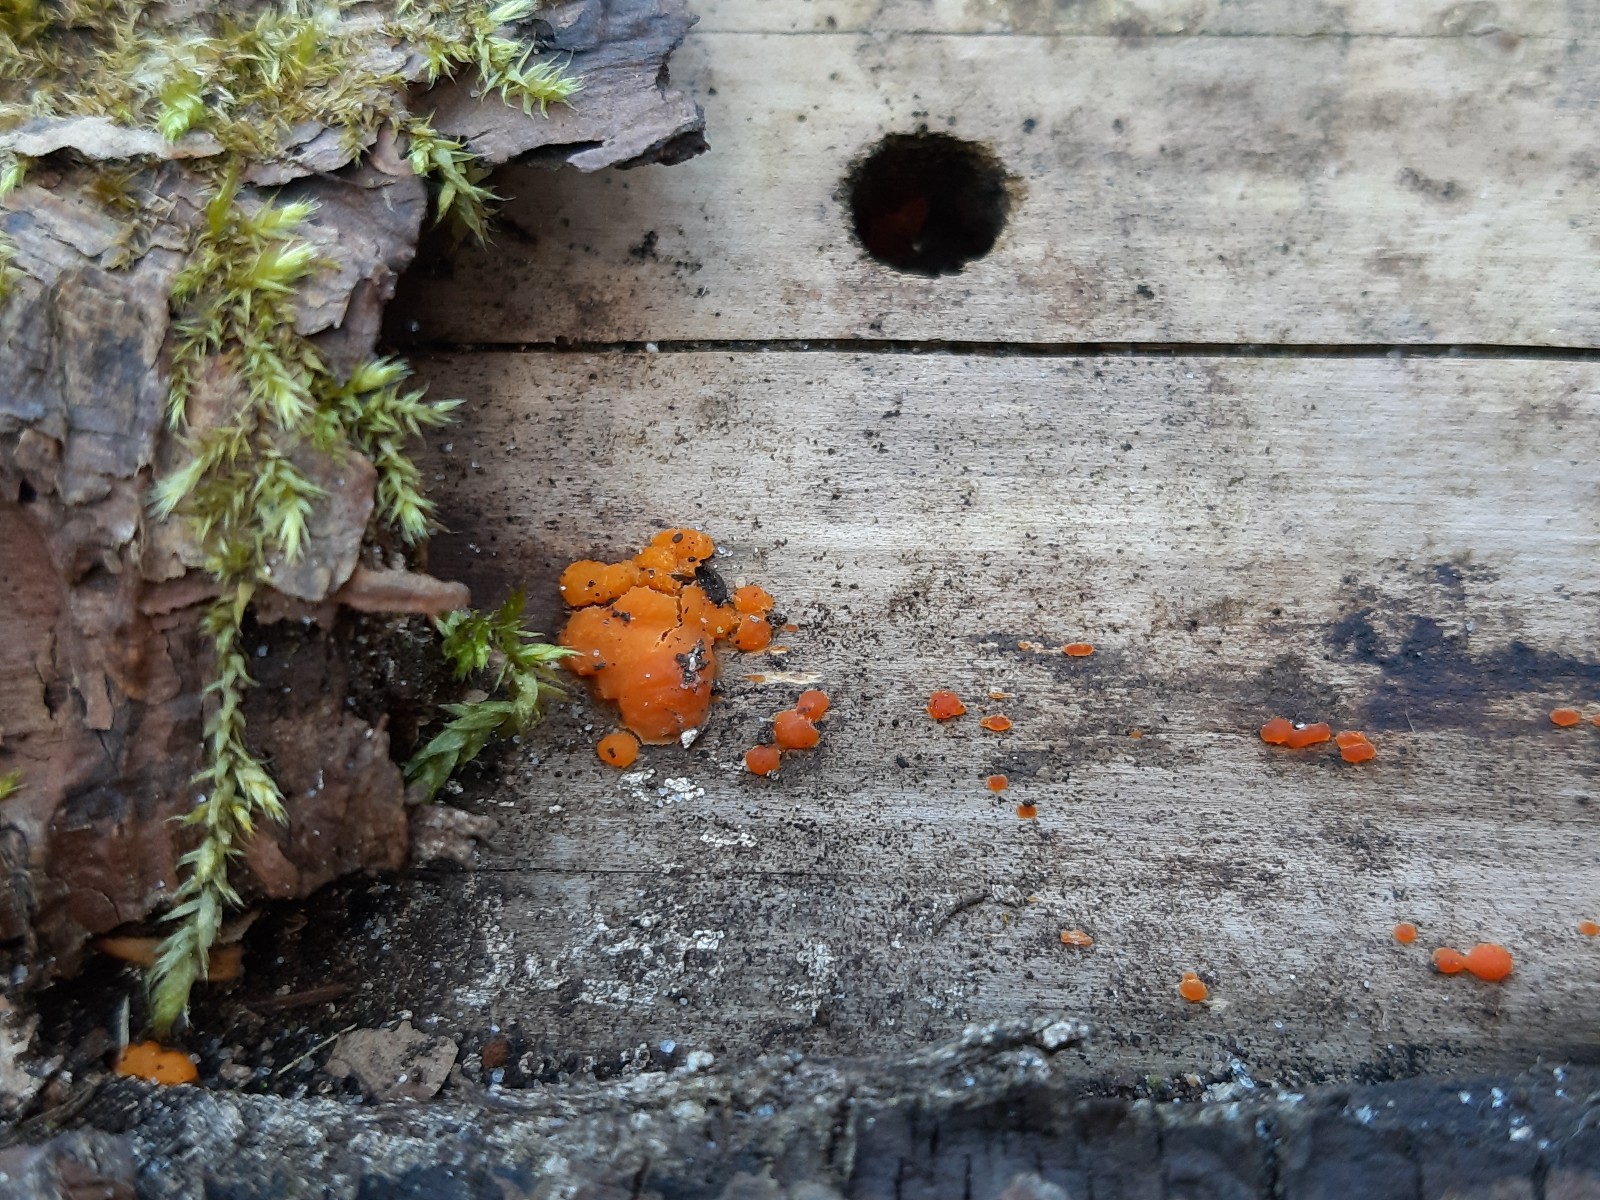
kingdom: Fungi
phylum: Basidiomycota
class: Dacrymycetes
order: Dacrymycetales
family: Dacrymycetaceae
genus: Dacrymyces
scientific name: Dacrymyces stillatus
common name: almindelig tåresvamp
